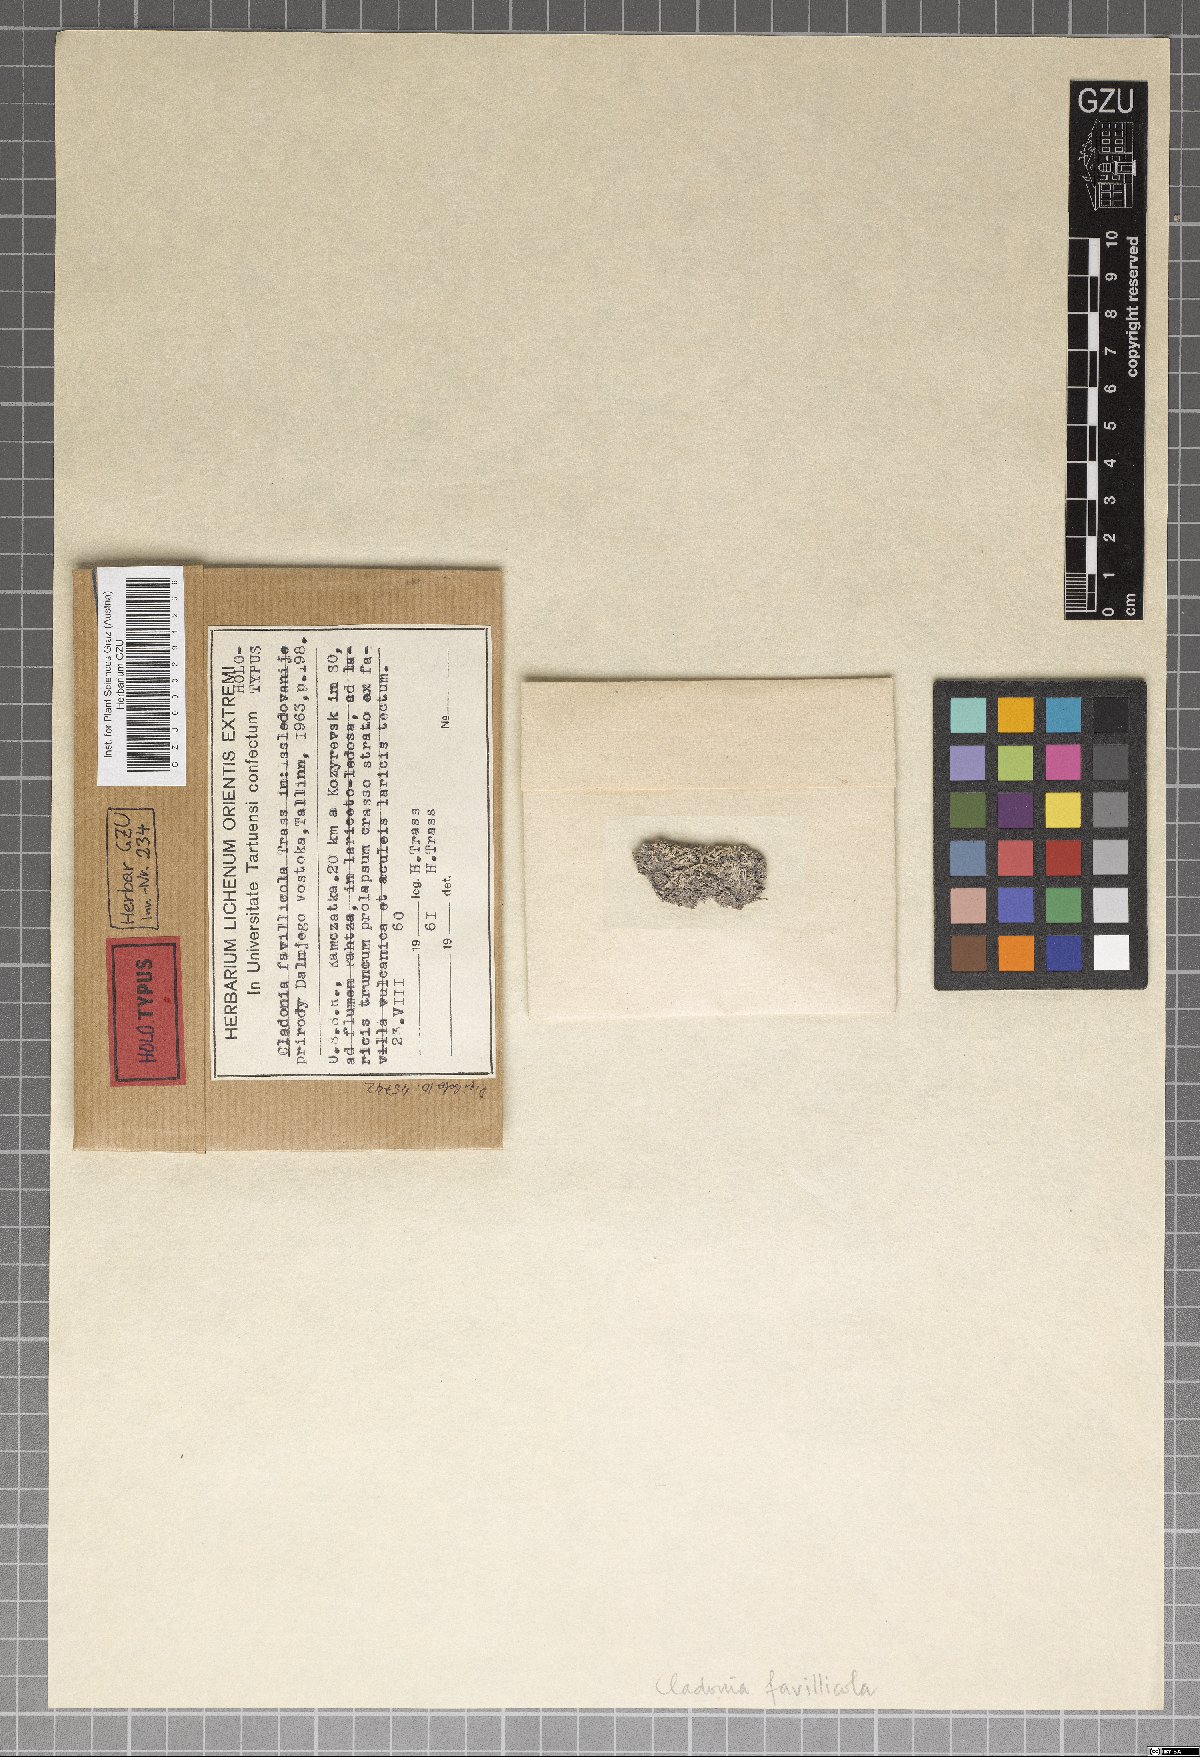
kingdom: Plantae
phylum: Marchantiophyta
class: Marchantiopsida
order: Marchantiales
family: Monocleaceae
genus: Monoclea
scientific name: Monoclea
